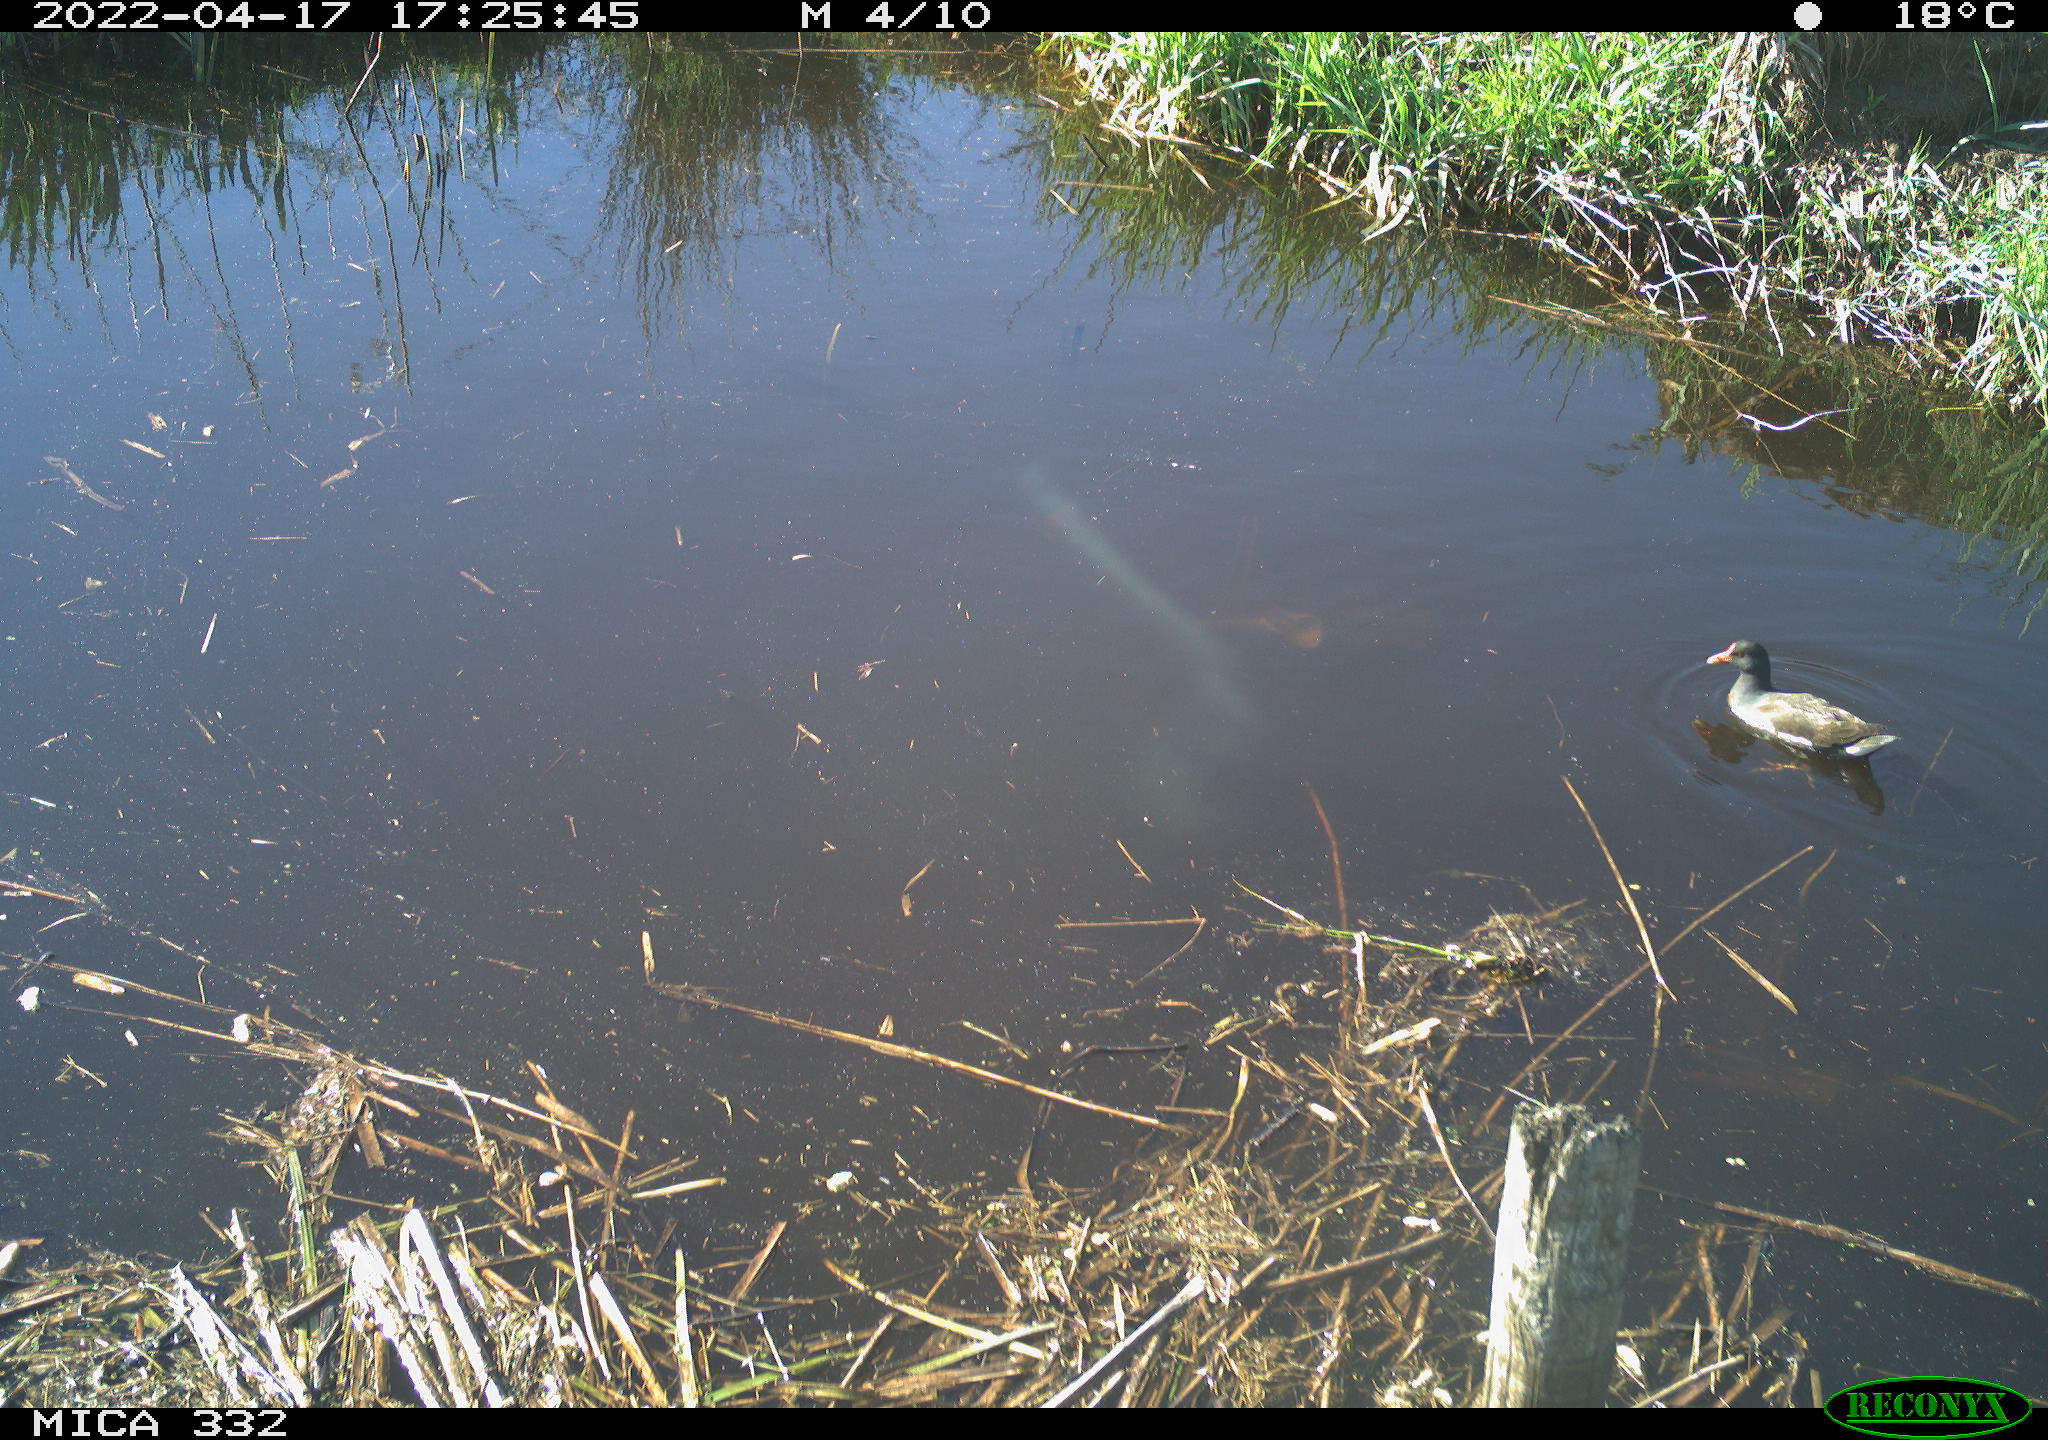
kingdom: Animalia
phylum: Chordata
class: Aves
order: Gruiformes
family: Rallidae
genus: Gallinula
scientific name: Gallinula chloropus
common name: Common moorhen
